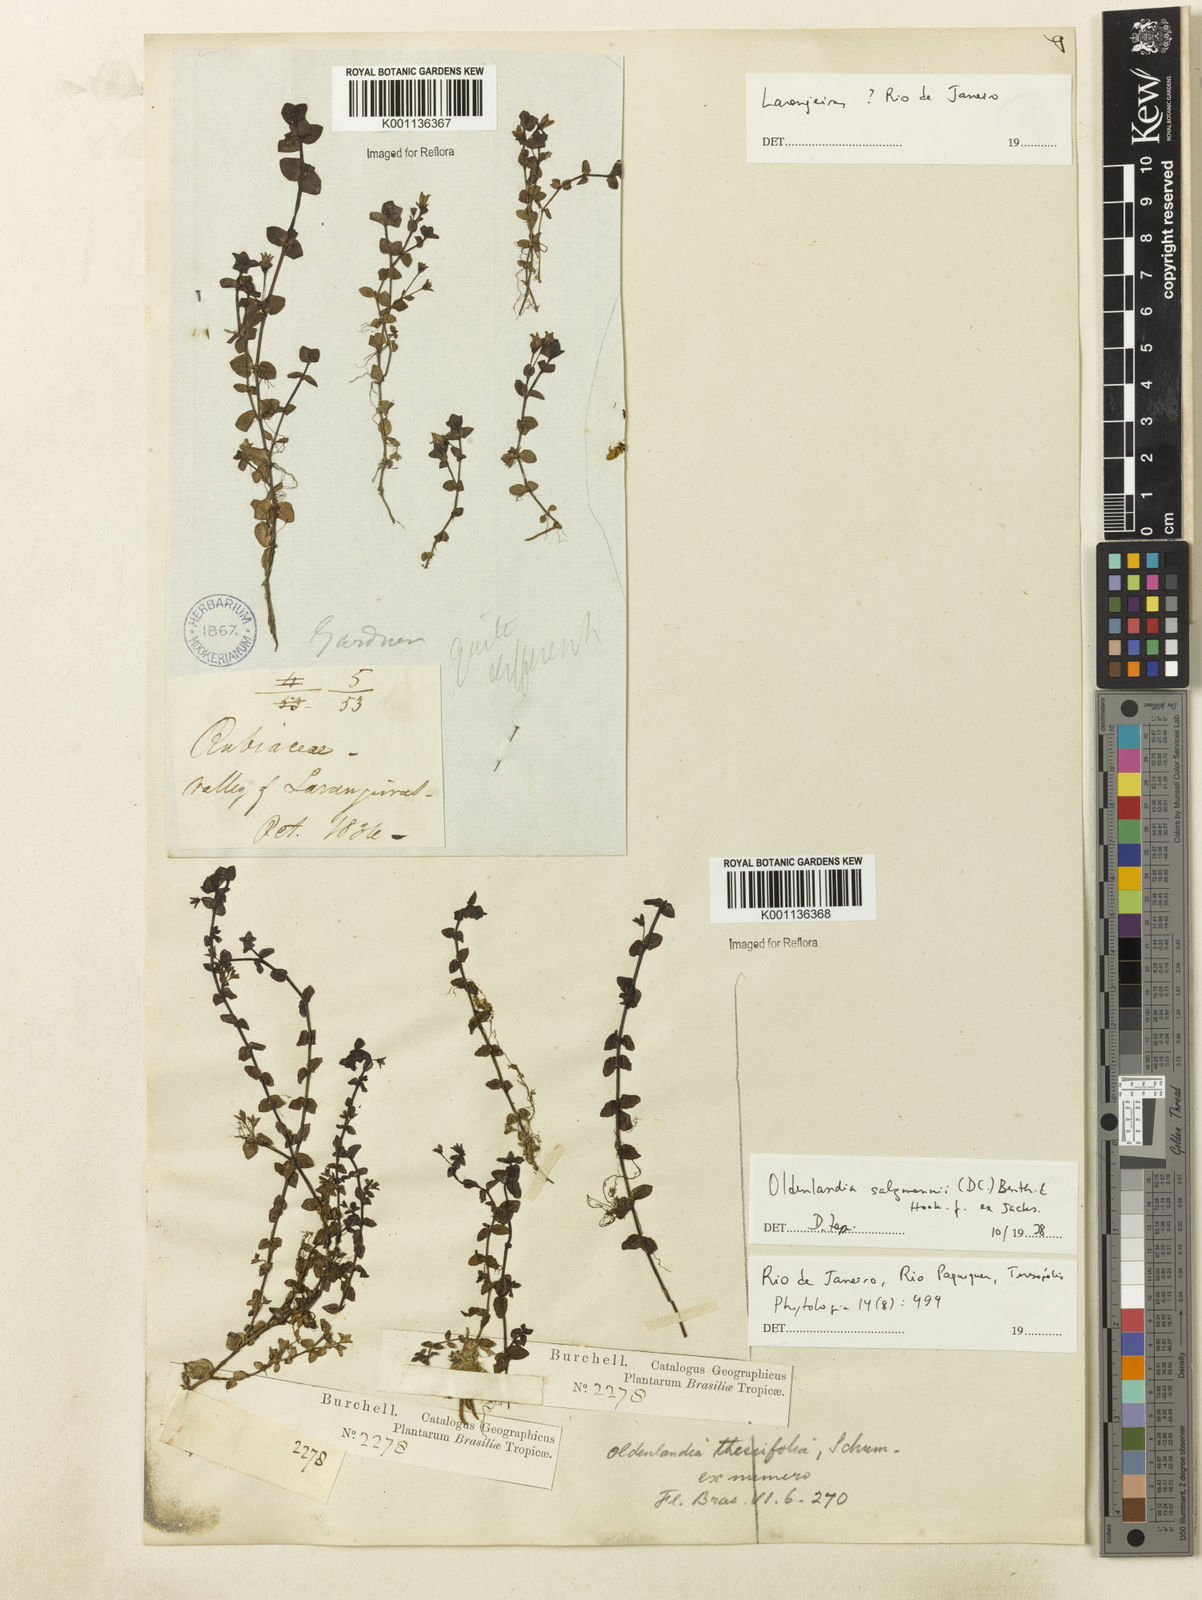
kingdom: Plantae
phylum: Tracheophyta
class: Magnoliopsida
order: Gentianales
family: Rubiaceae
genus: Oldenlandia
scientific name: Oldenlandia salzmannii
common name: Salzmann's mille graines
